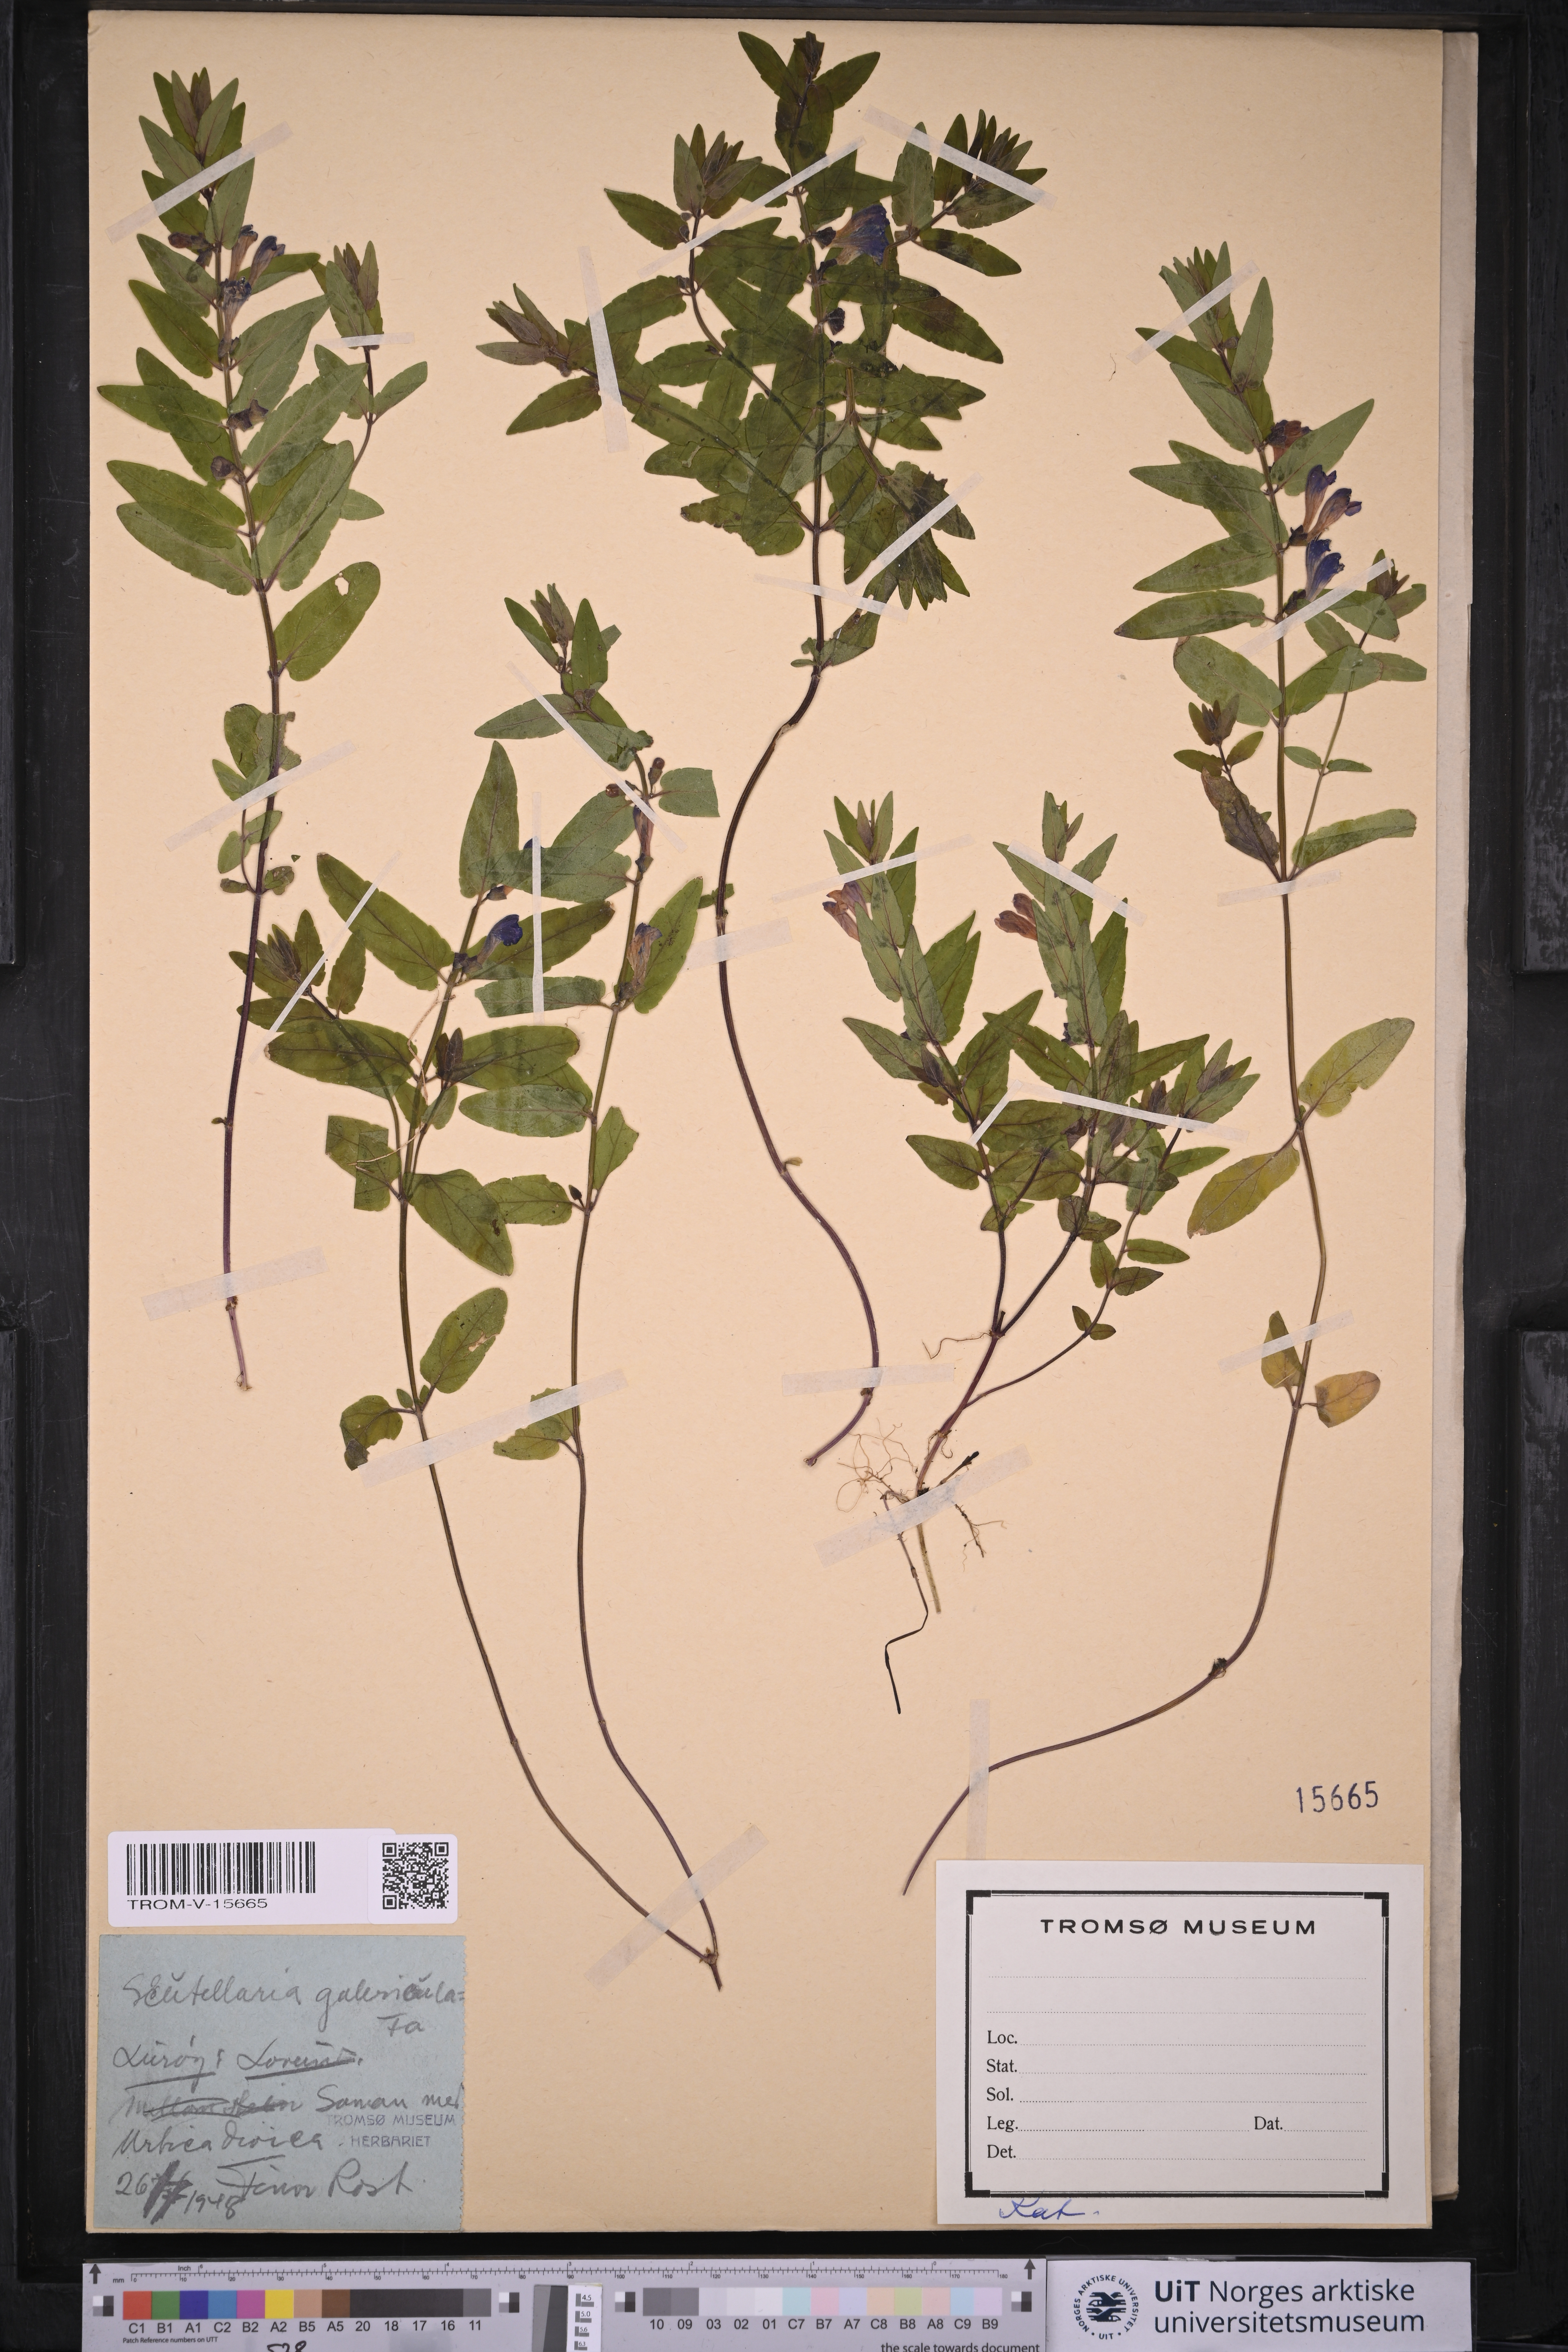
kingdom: Plantae
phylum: Tracheophyta
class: Magnoliopsida
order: Lamiales
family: Lamiaceae
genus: Scutellaria
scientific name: Scutellaria galericulata
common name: Skullcap
